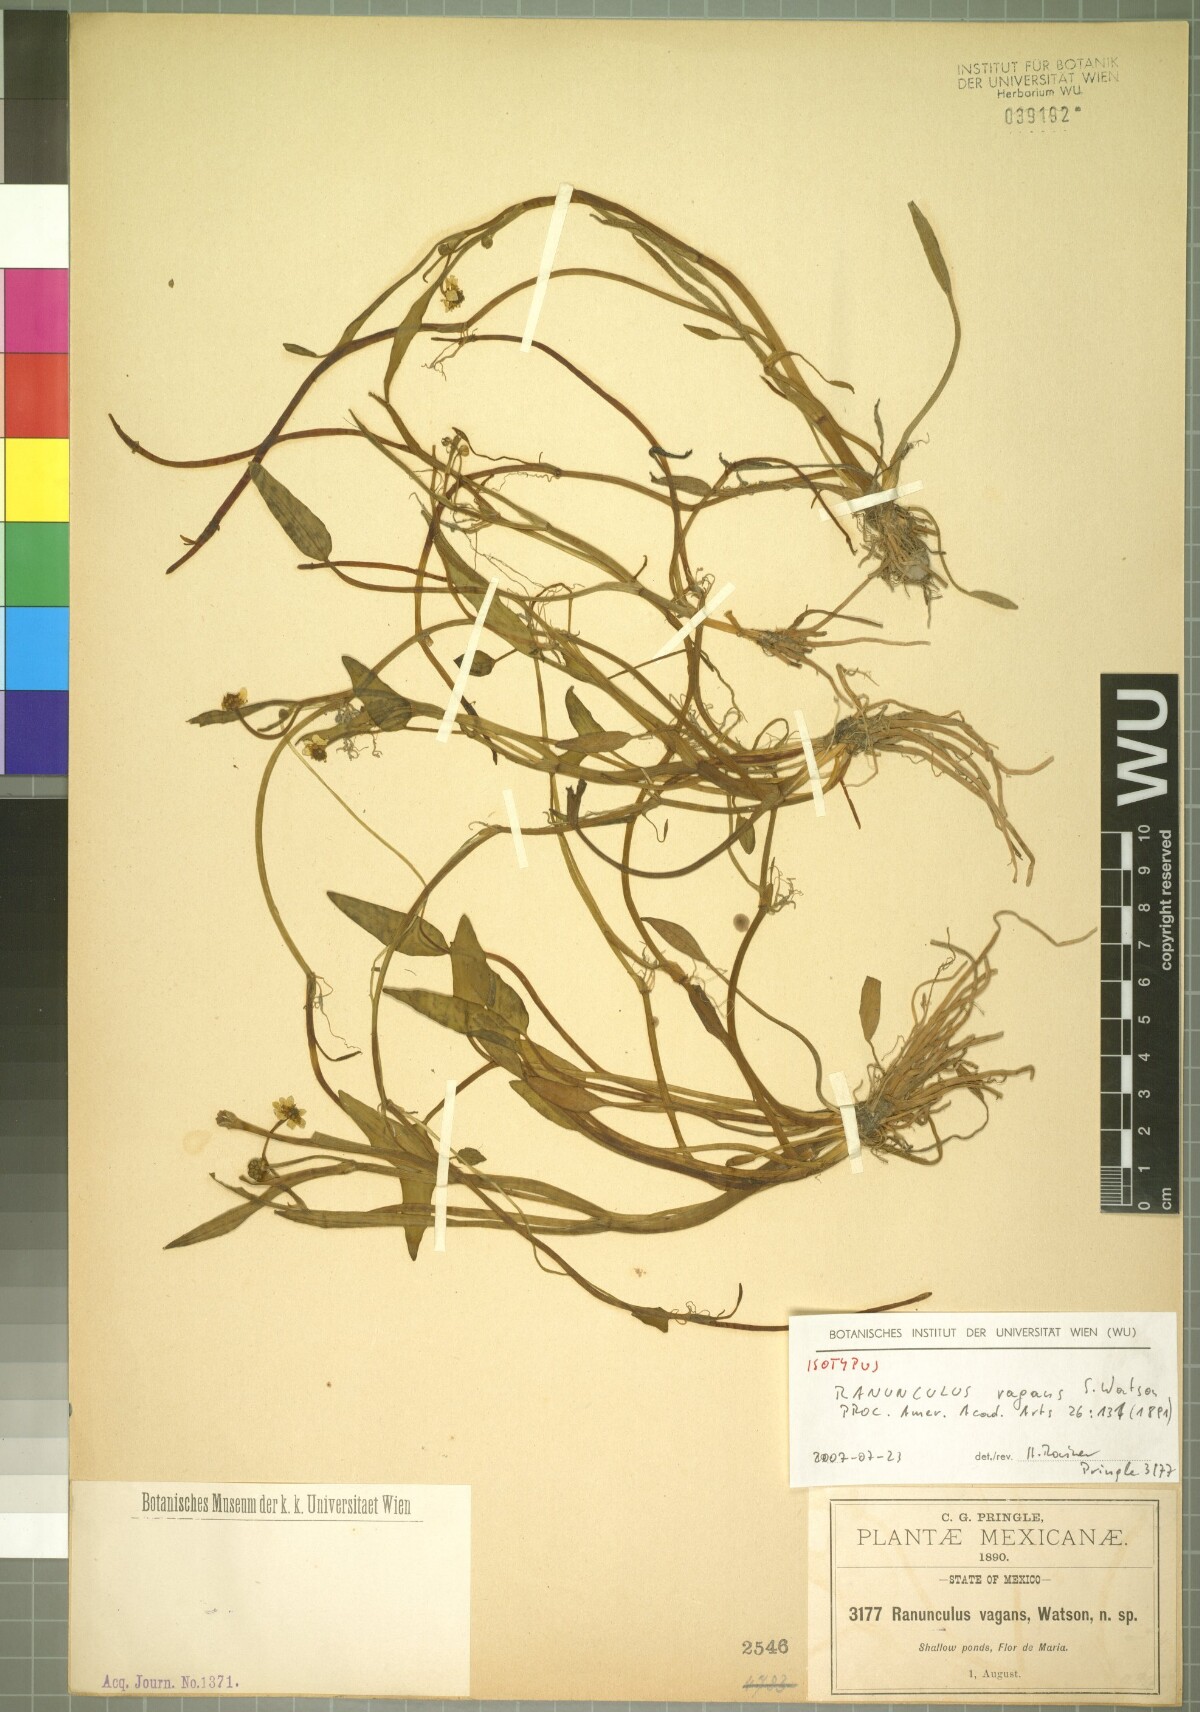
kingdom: Plantae
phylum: Tracheophyta
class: Magnoliopsida
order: Ranunculales
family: Ranunculaceae
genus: Ranunculus
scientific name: Ranunculus hydrocharoides
